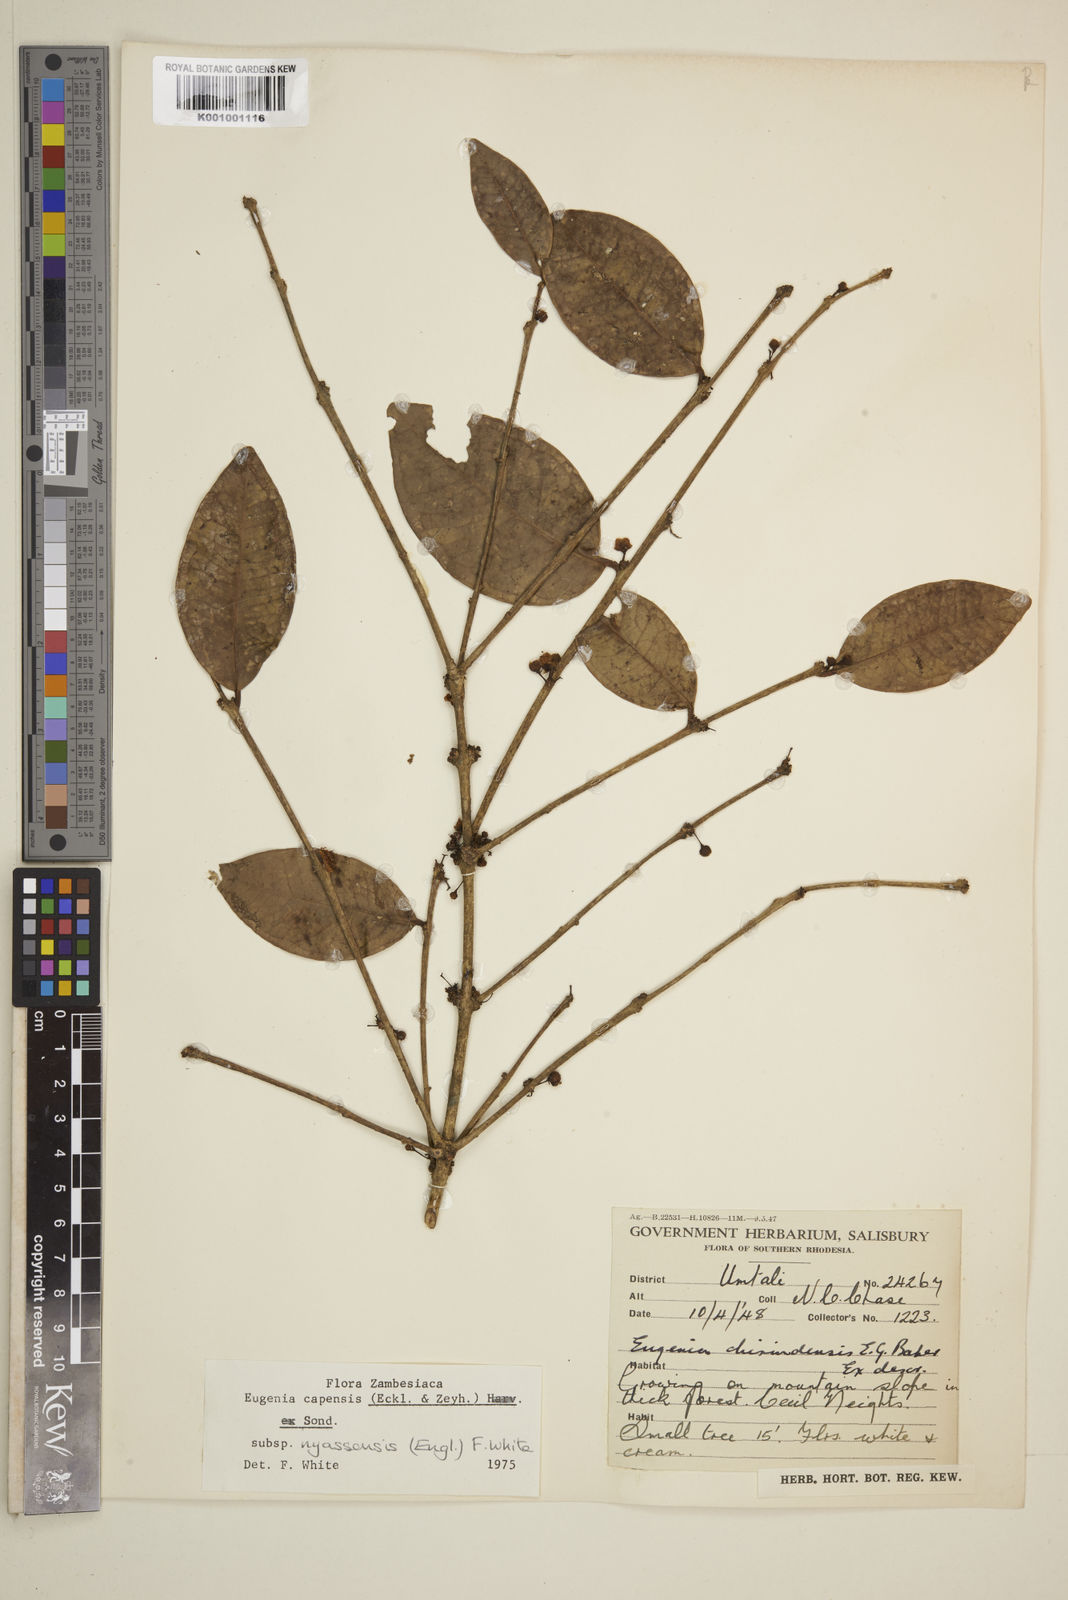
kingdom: Plantae
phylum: Tracheophyta
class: Magnoliopsida
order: Myrtales
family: Myrtaceae
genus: Eugenia
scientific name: Eugenia capensis
